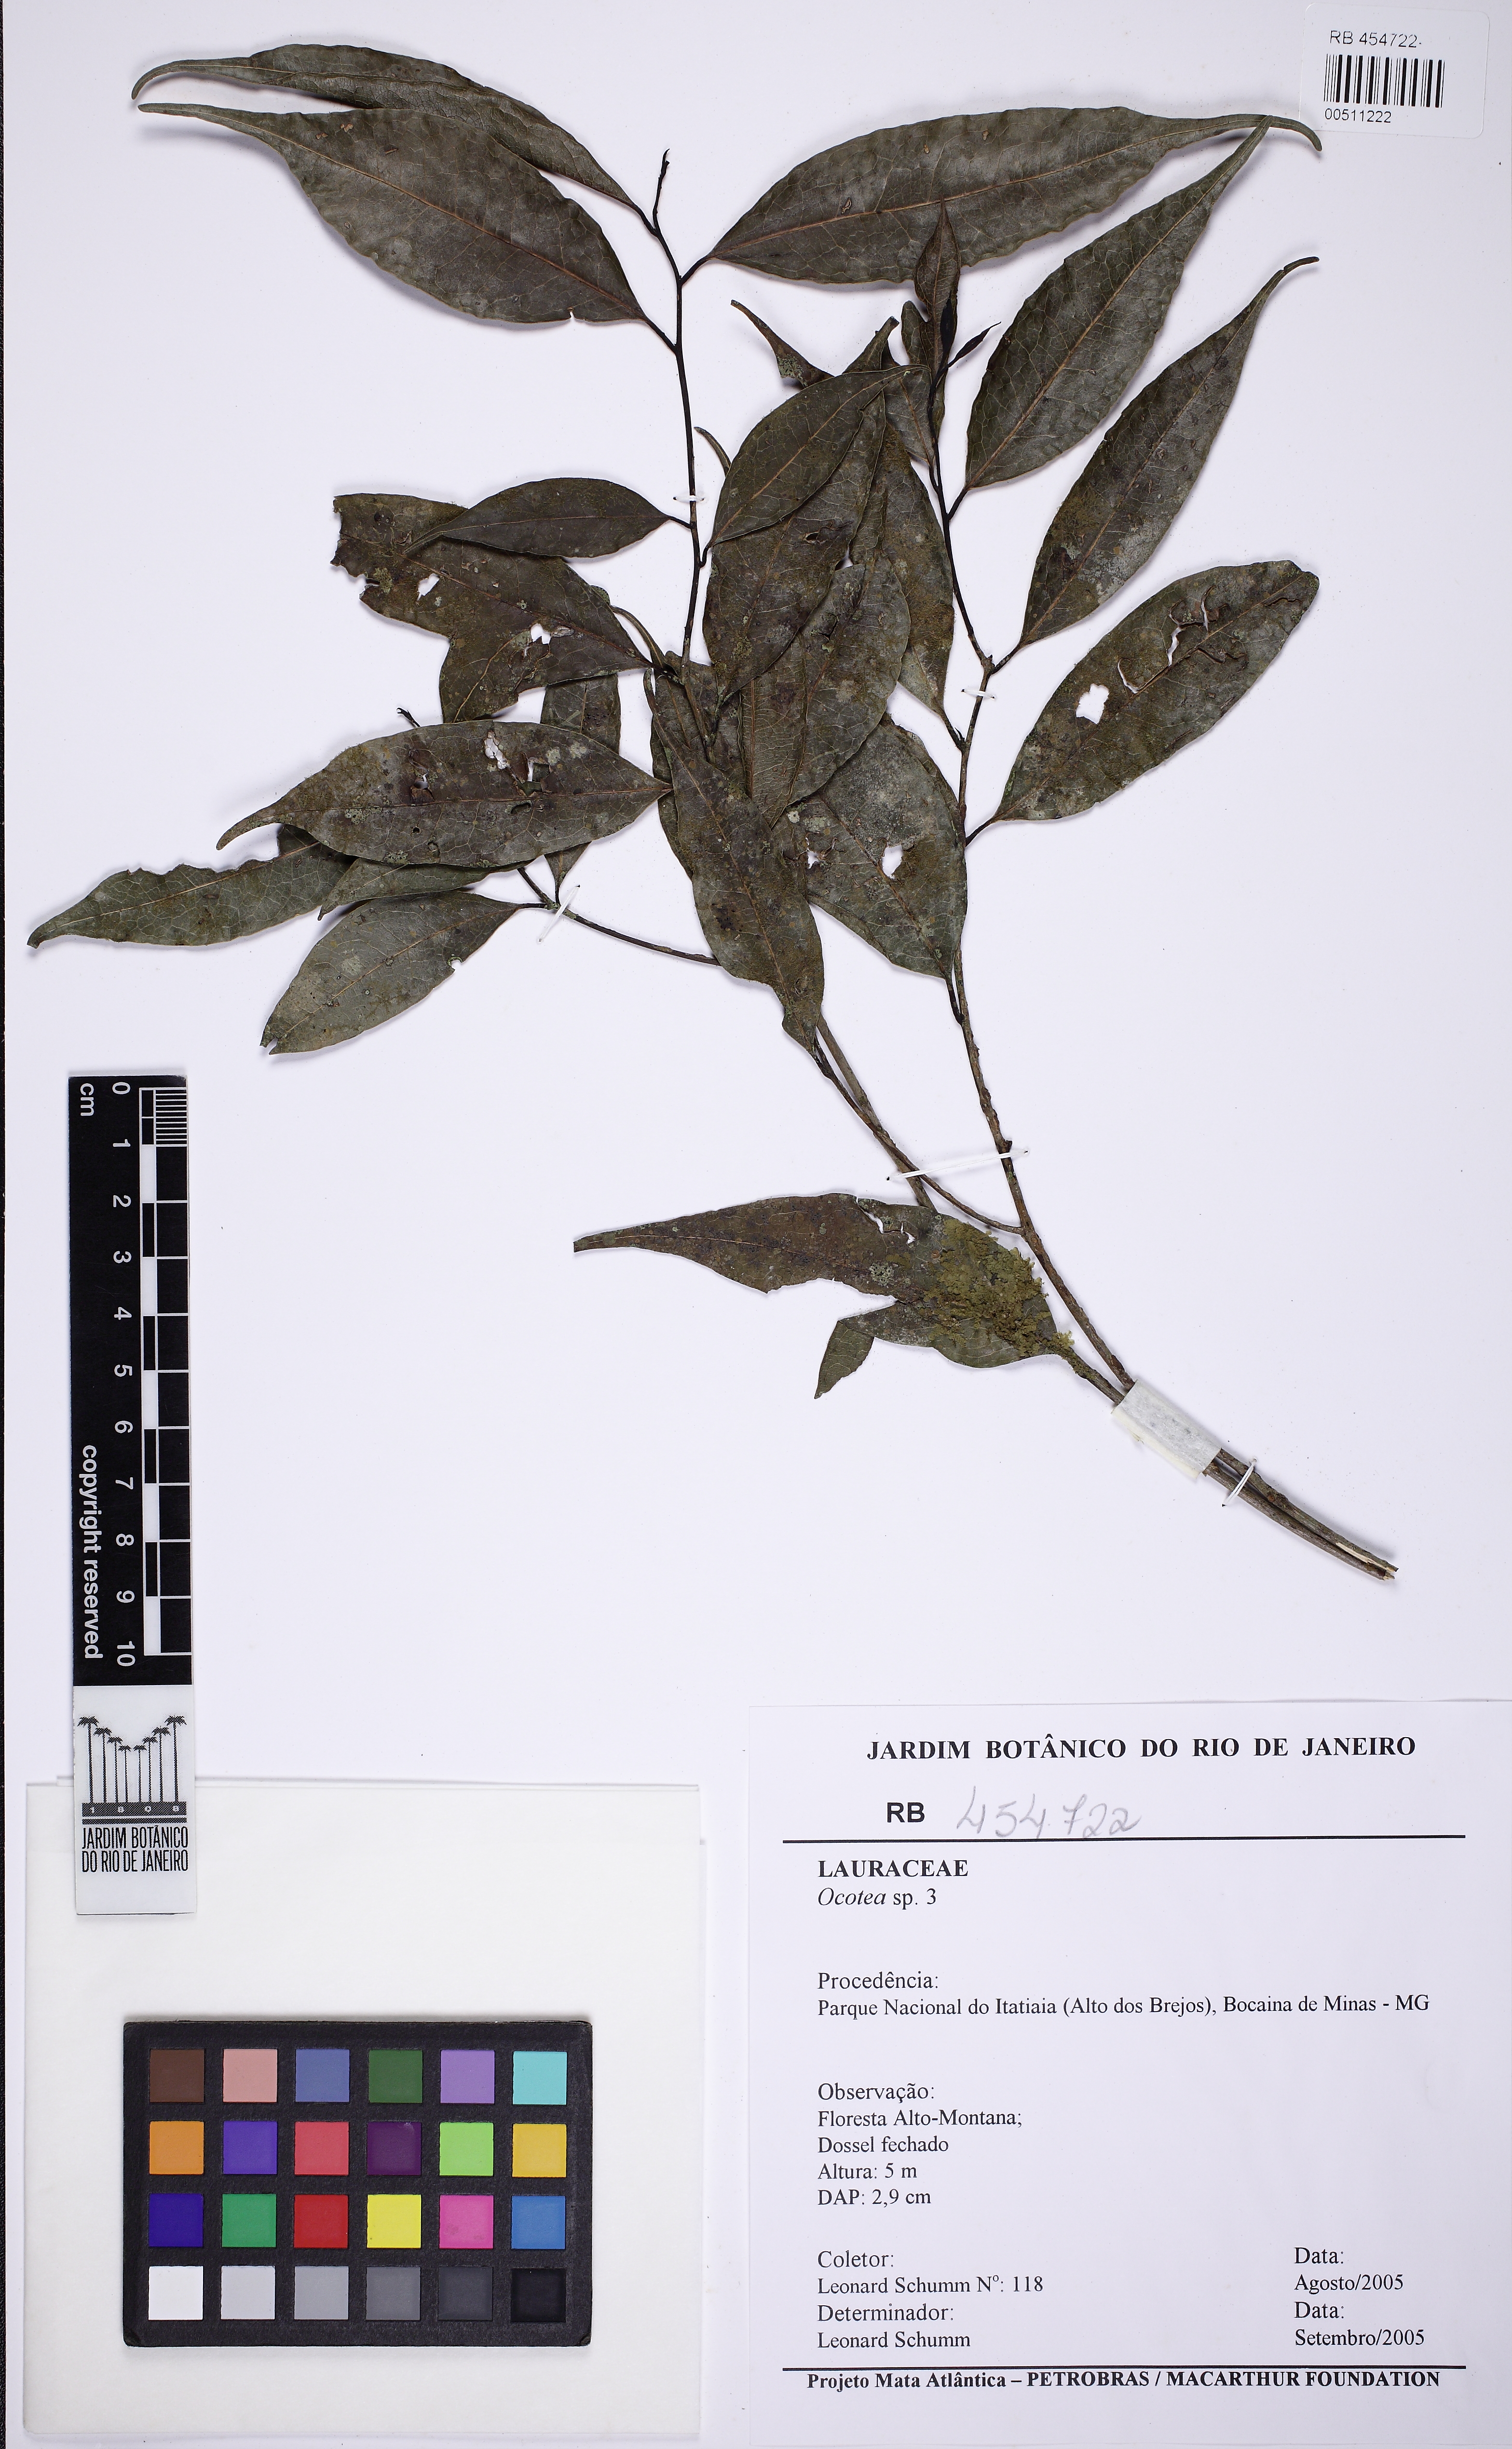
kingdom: Plantae
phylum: Tracheophyta
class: Magnoliopsida
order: Laurales
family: Lauraceae
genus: Ocotea
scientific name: Ocotea
